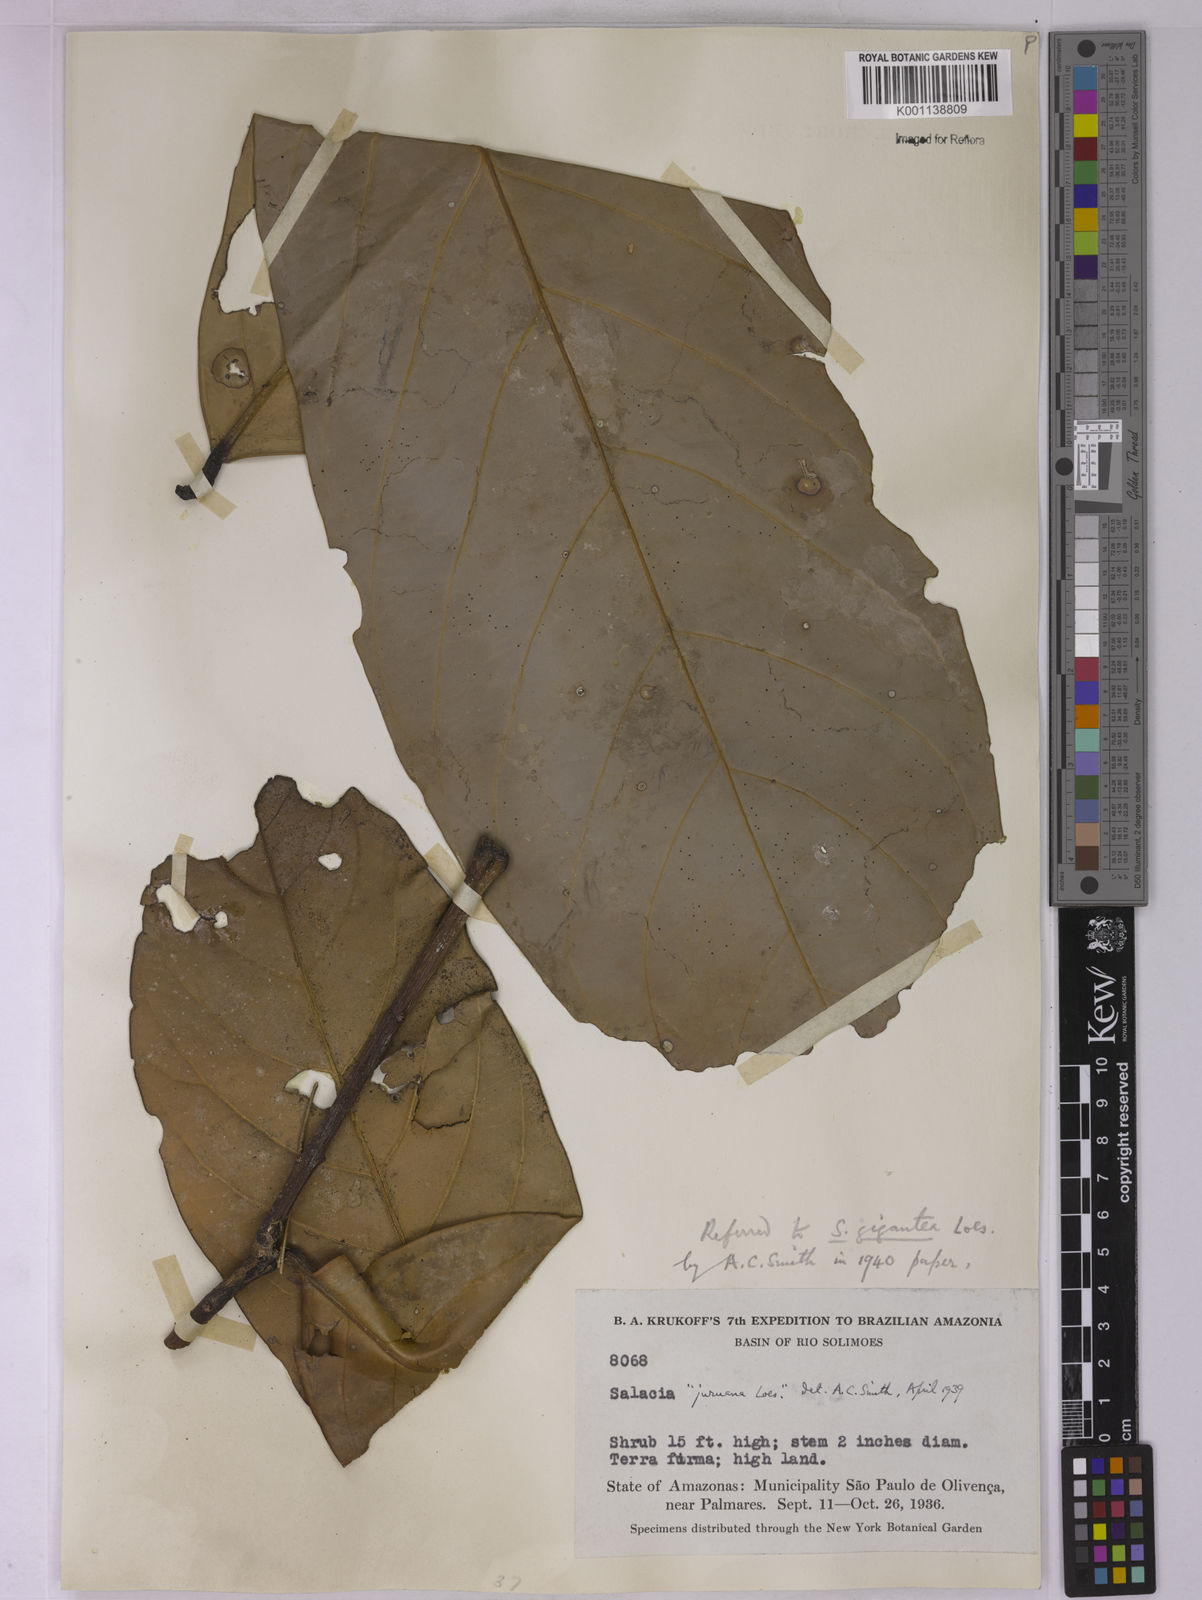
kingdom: Plantae
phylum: Tracheophyta
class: Magnoliopsida
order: Celastrales
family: Celastraceae
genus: Salacia
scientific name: Salacia gigantea
